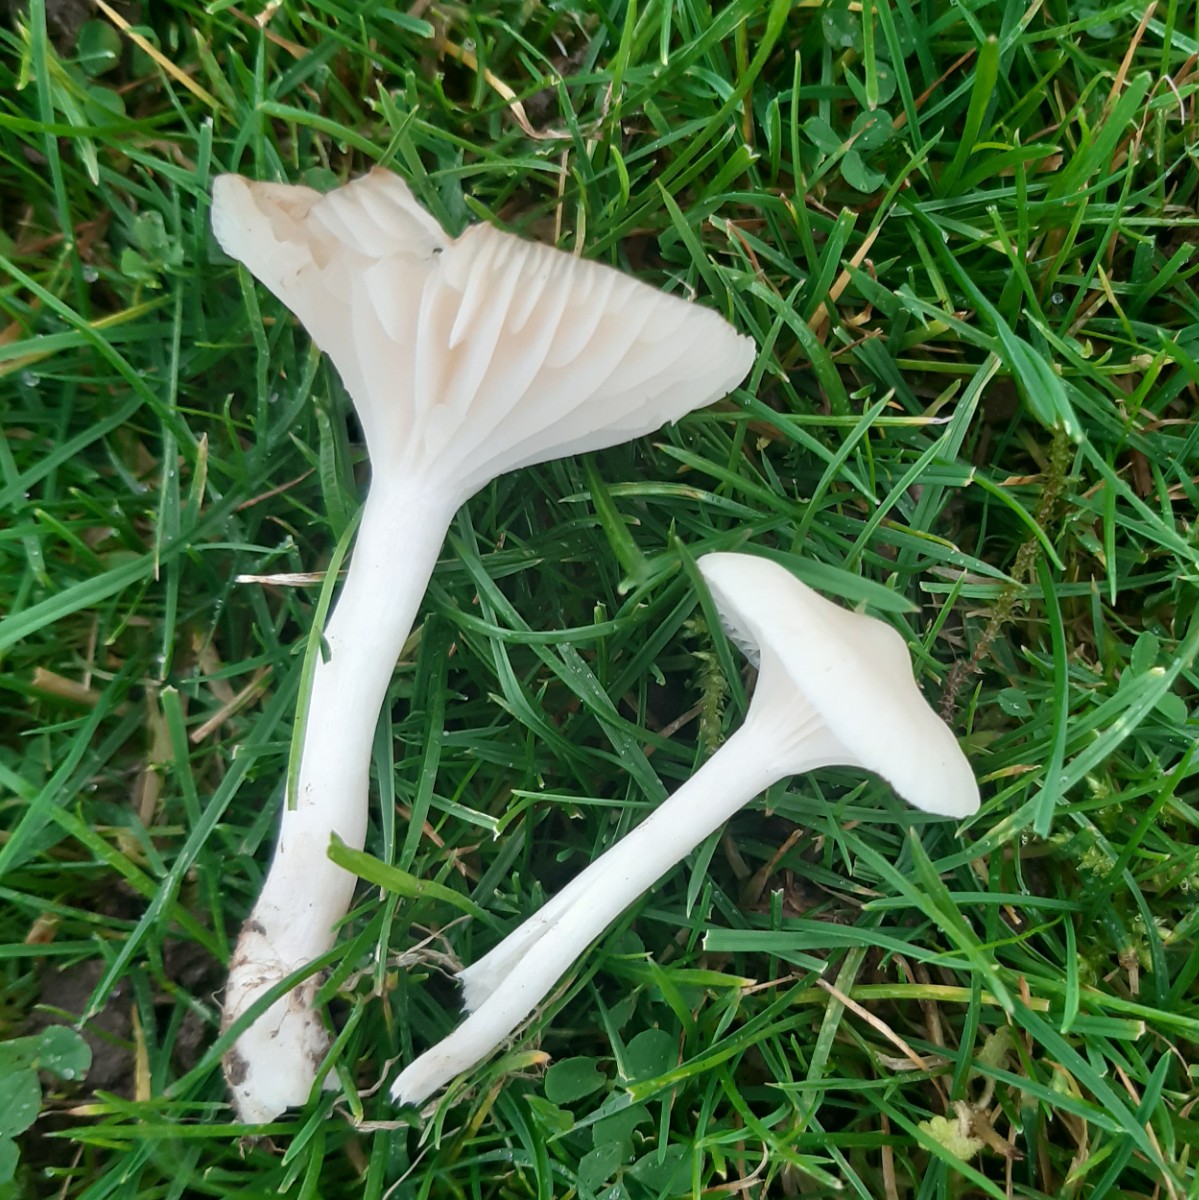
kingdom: Fungi
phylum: Basidiomycota
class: Agaricomycetes
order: Agaricales
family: Hygrophoraceae
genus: Cuphophyllus
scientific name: Cuphophyllus virgineus
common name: snehvid vokshat
